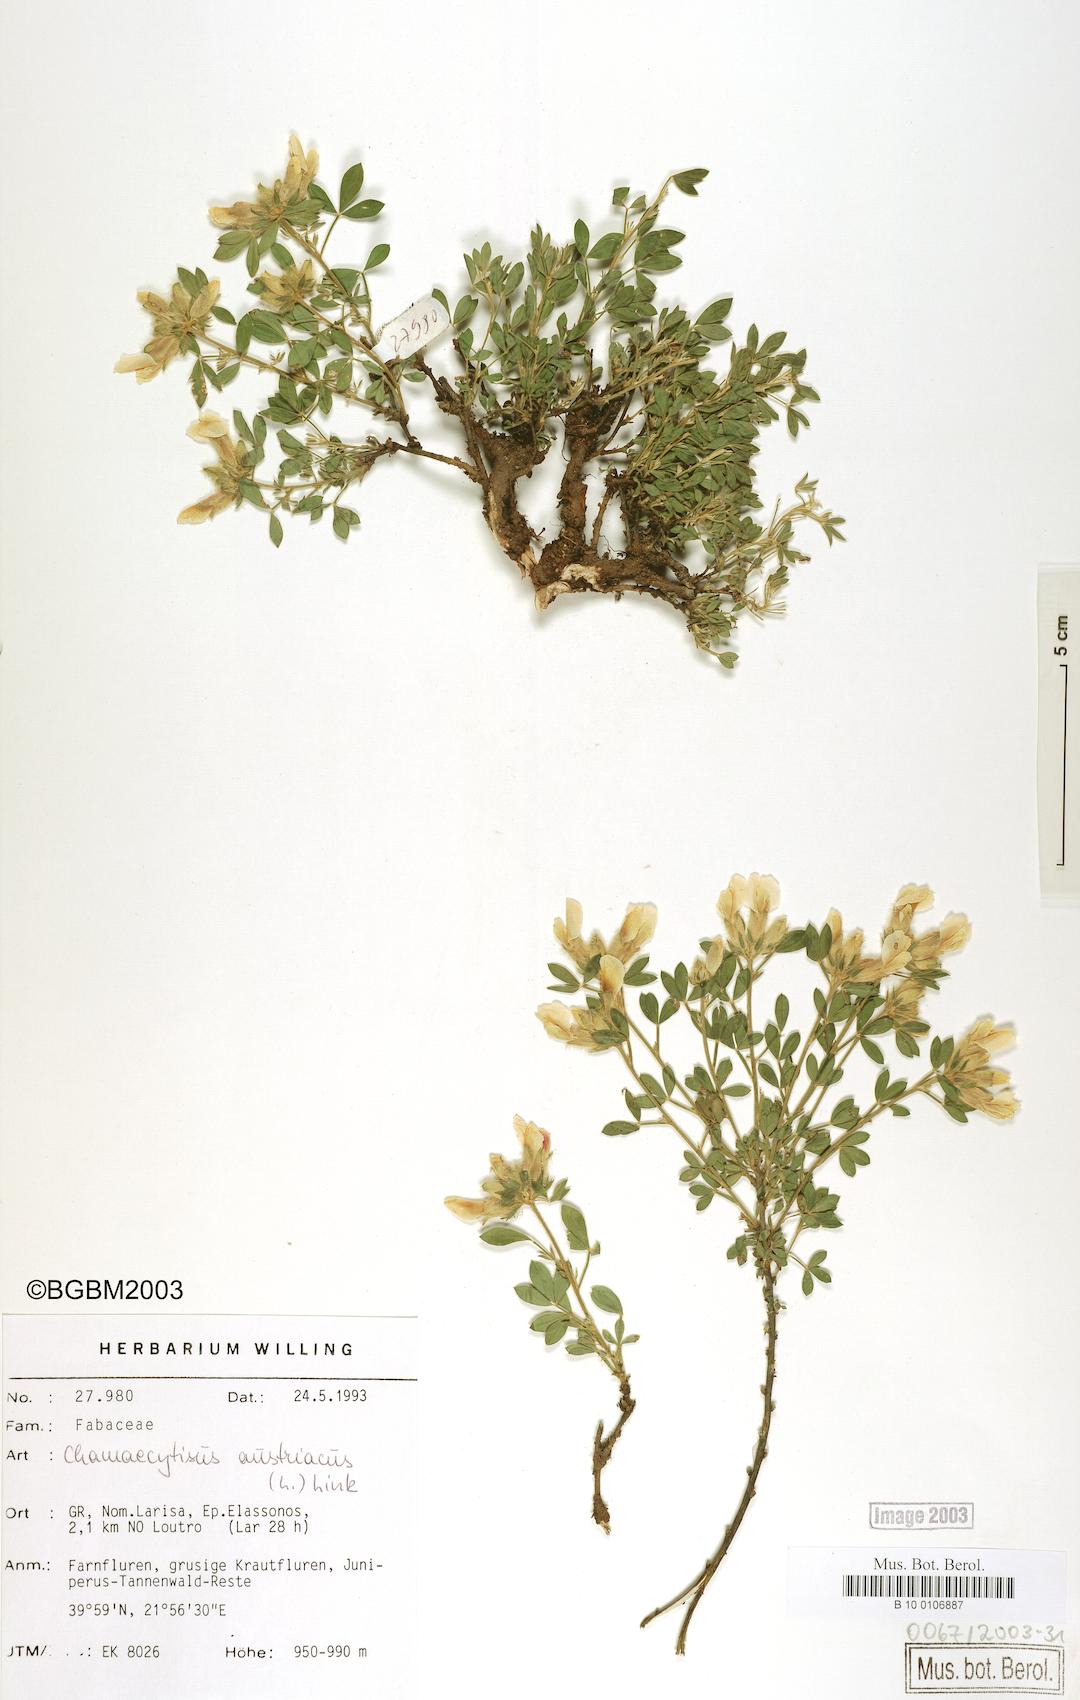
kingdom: Plantae
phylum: Tracheophyta
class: Magnoliopsida
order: Fabales
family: Fabaceae
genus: Chamaecytisus
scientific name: Chamaecytisus austriacus
